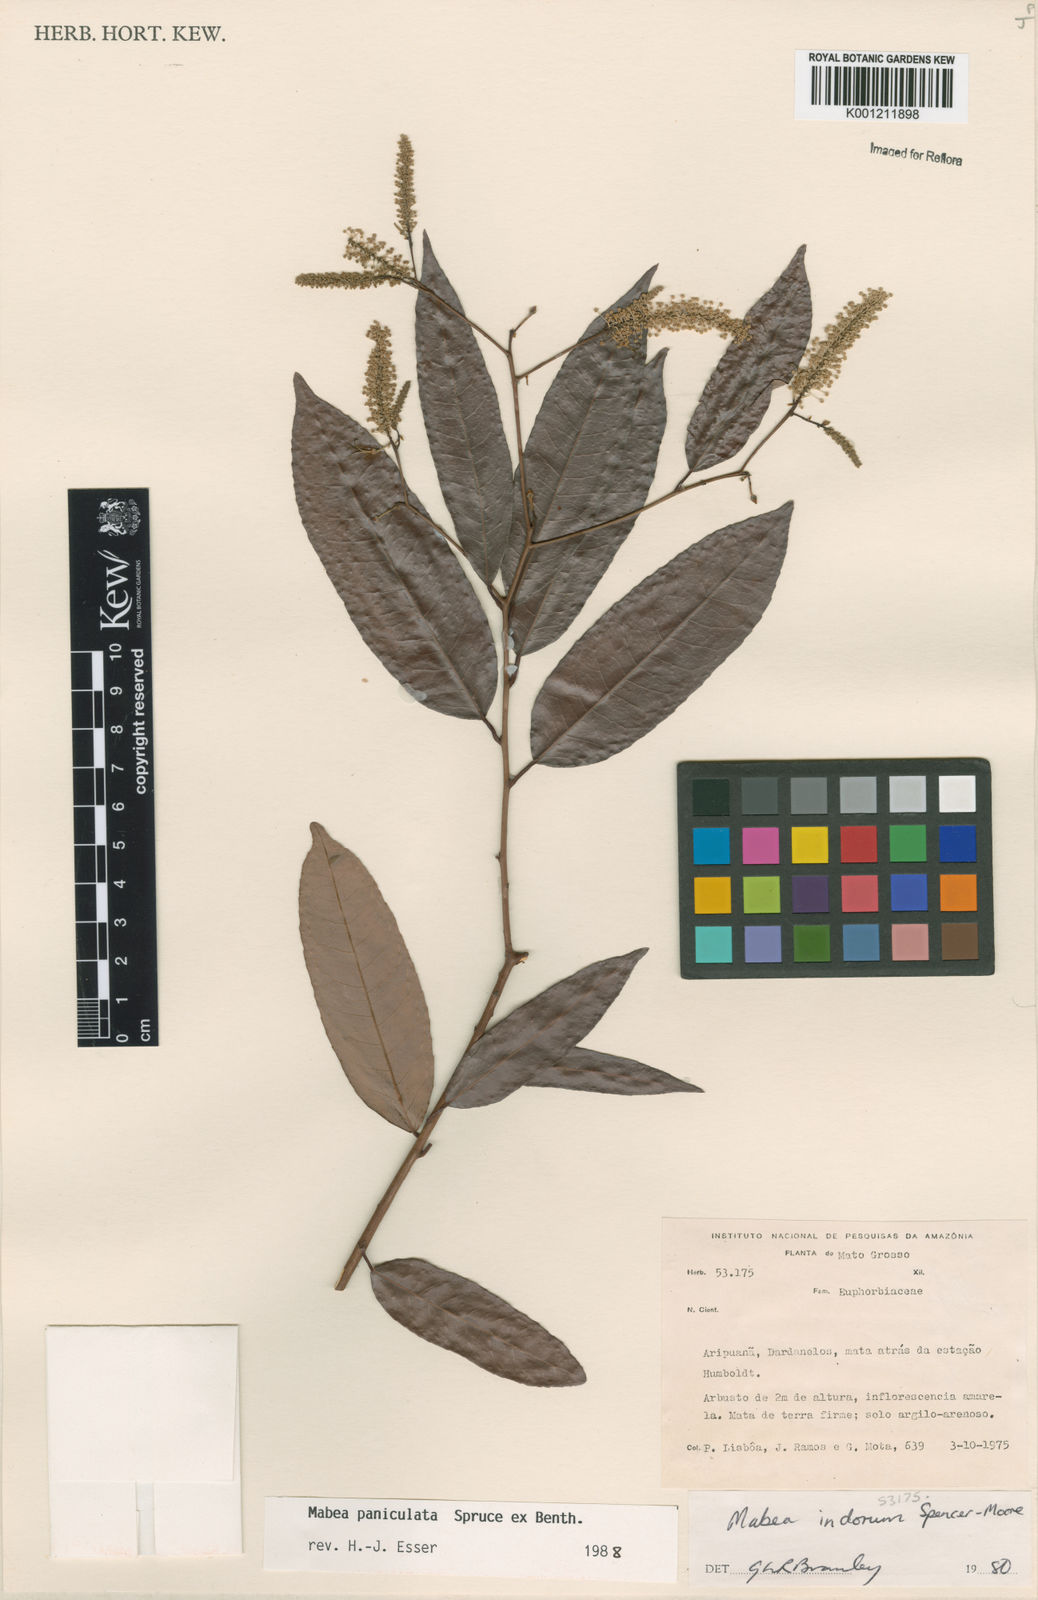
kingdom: Plantae
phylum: Tracheophyta
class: Magnoliopsida
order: Malpighiales
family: Euphorbiaceae
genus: Mabea
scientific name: Mabea paniculata
